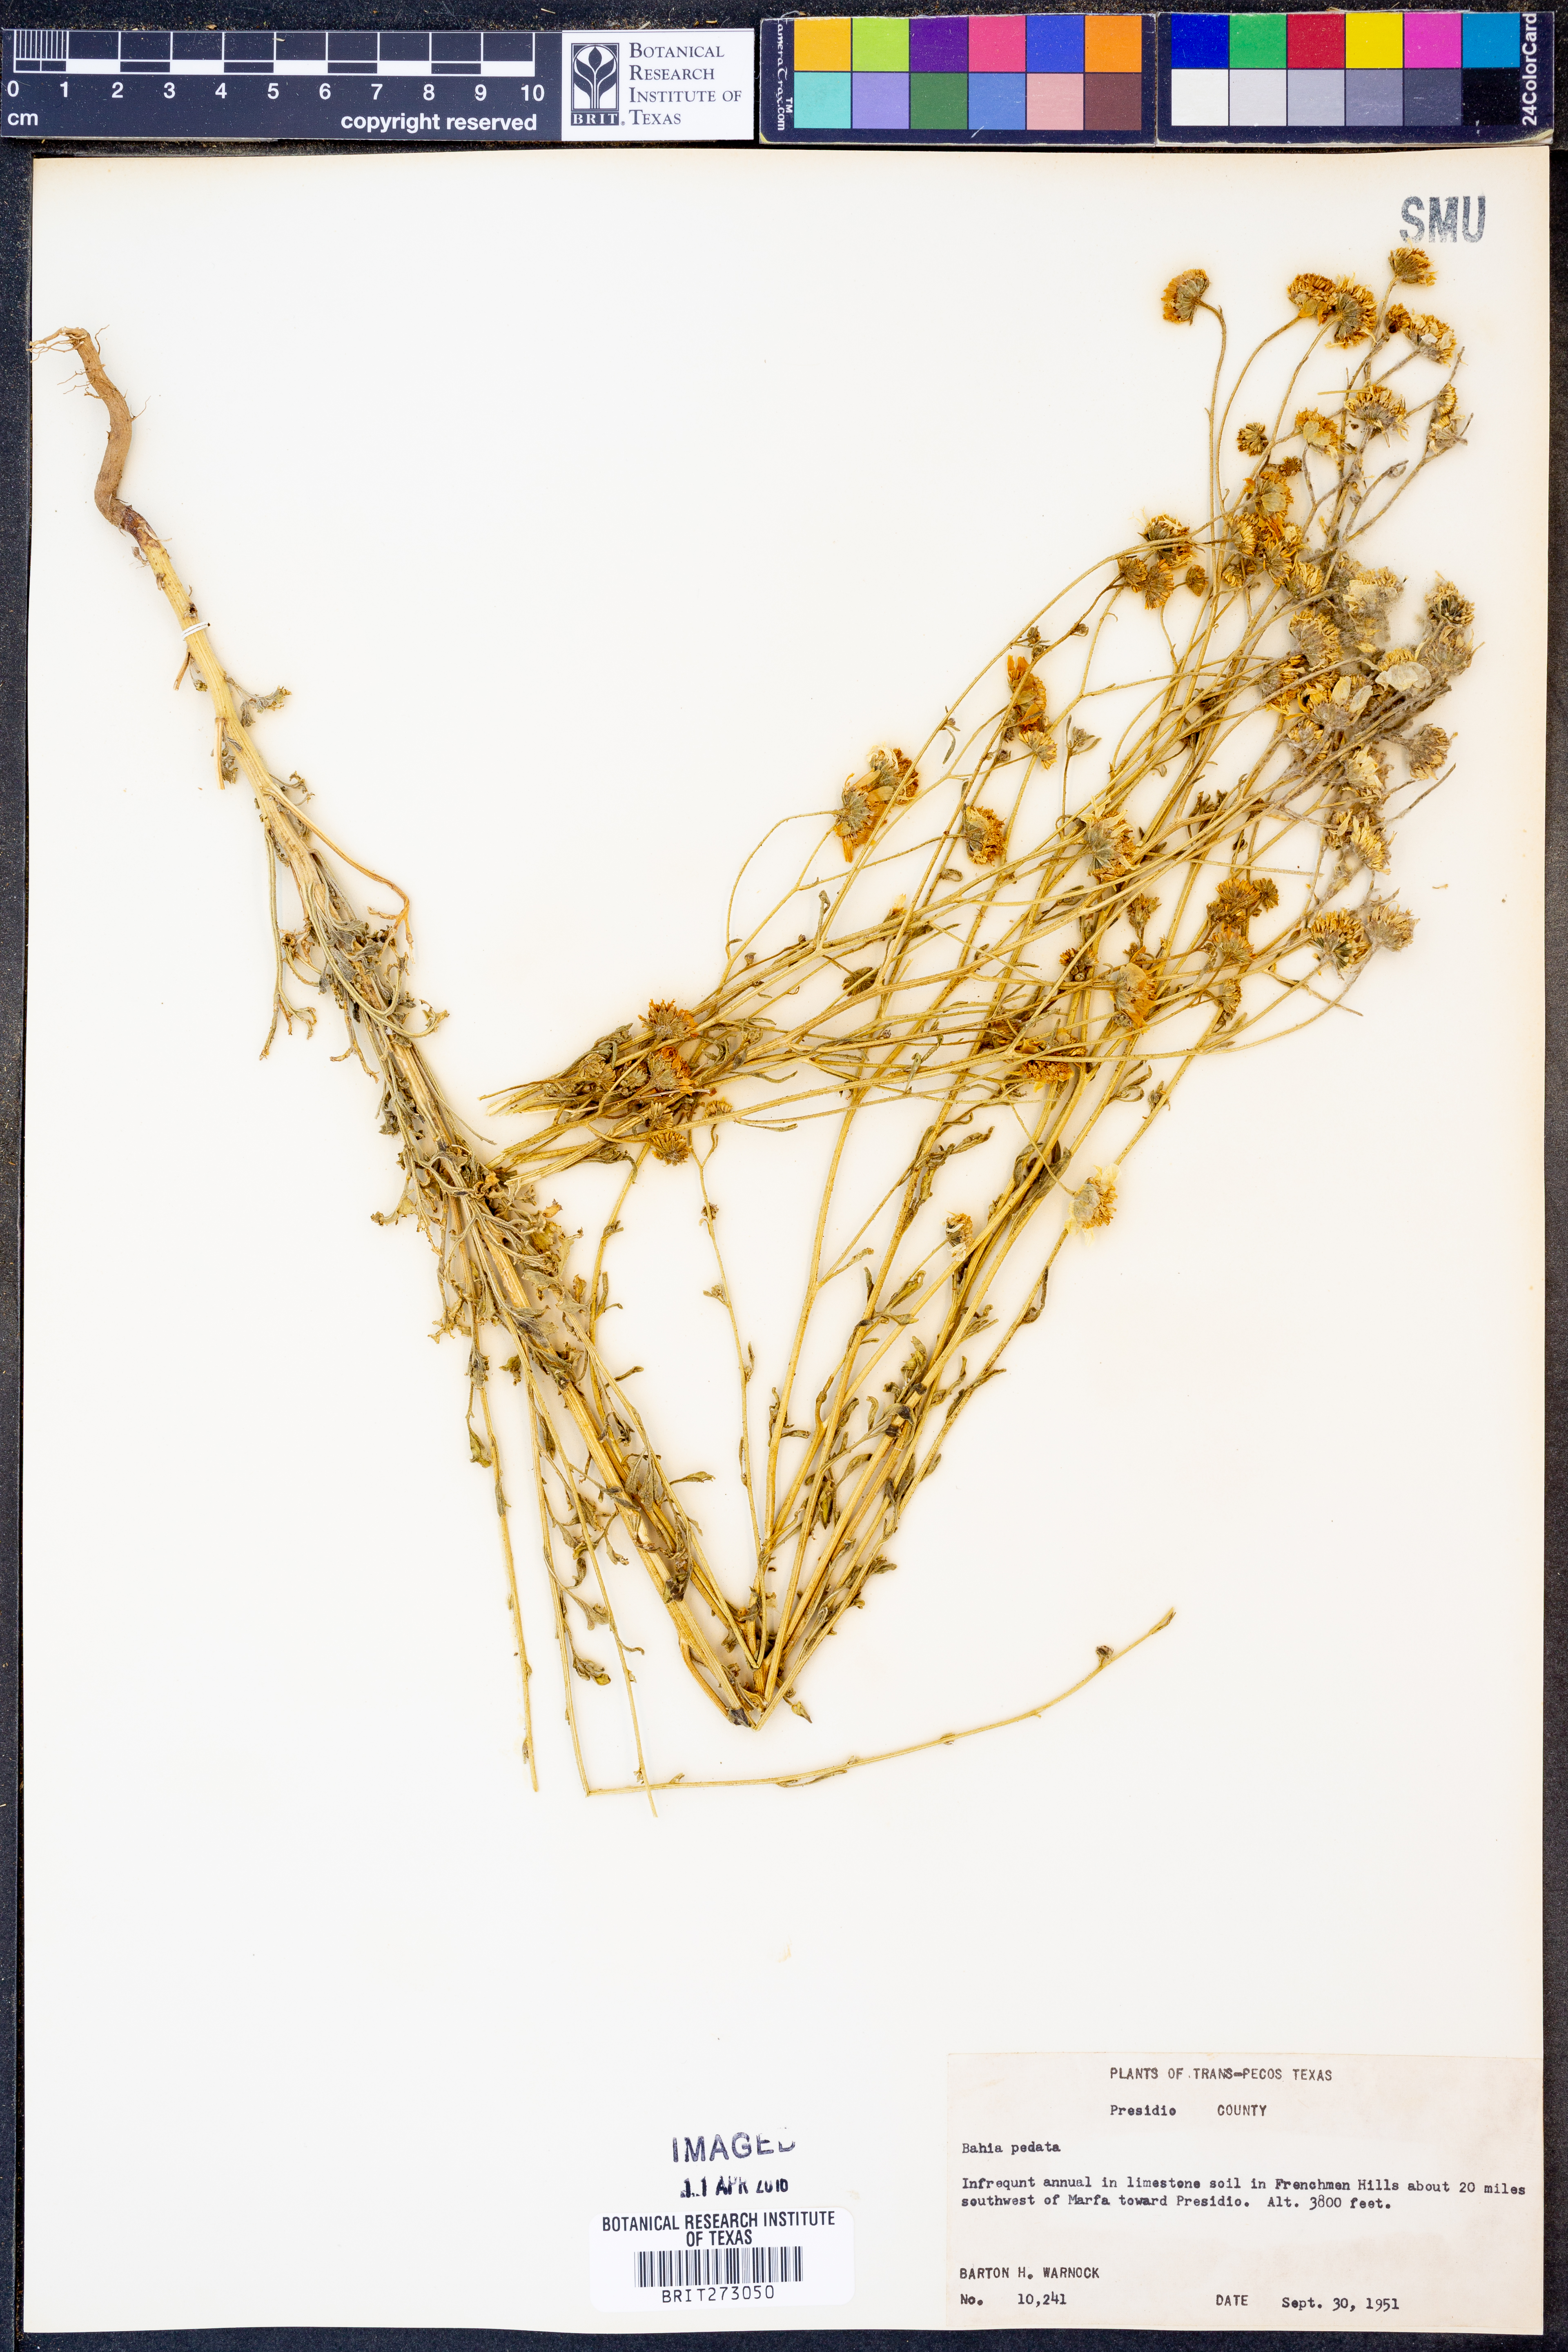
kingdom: Plantae
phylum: Tracheophyta
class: Magnoliopsida
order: Asterales
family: Asteraceae
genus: Hymenothrix
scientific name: Hymenothrix pedata
